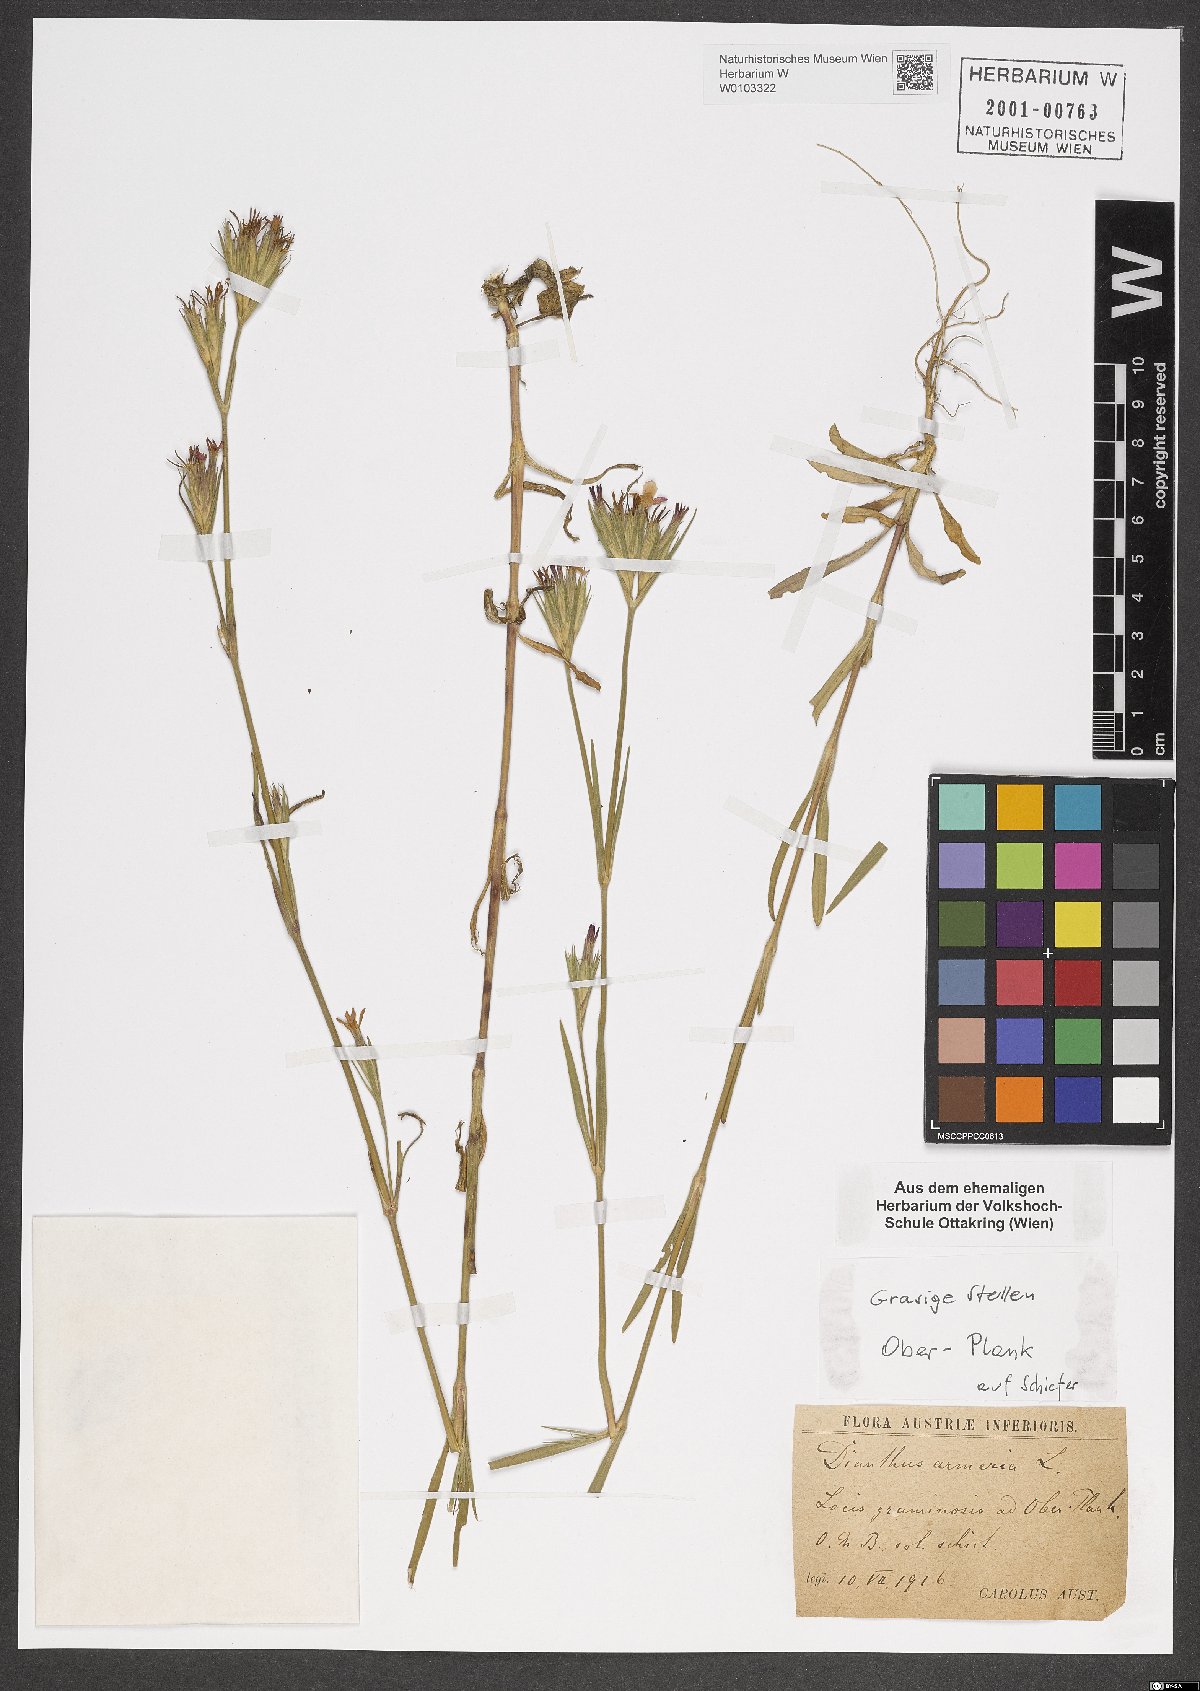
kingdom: Plantae
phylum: Tracheophyta
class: Magnoliopsida
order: Caryophyllales
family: Caryophyllaceae
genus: Dianthus
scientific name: Dianthus armeria
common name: Deptford pink
